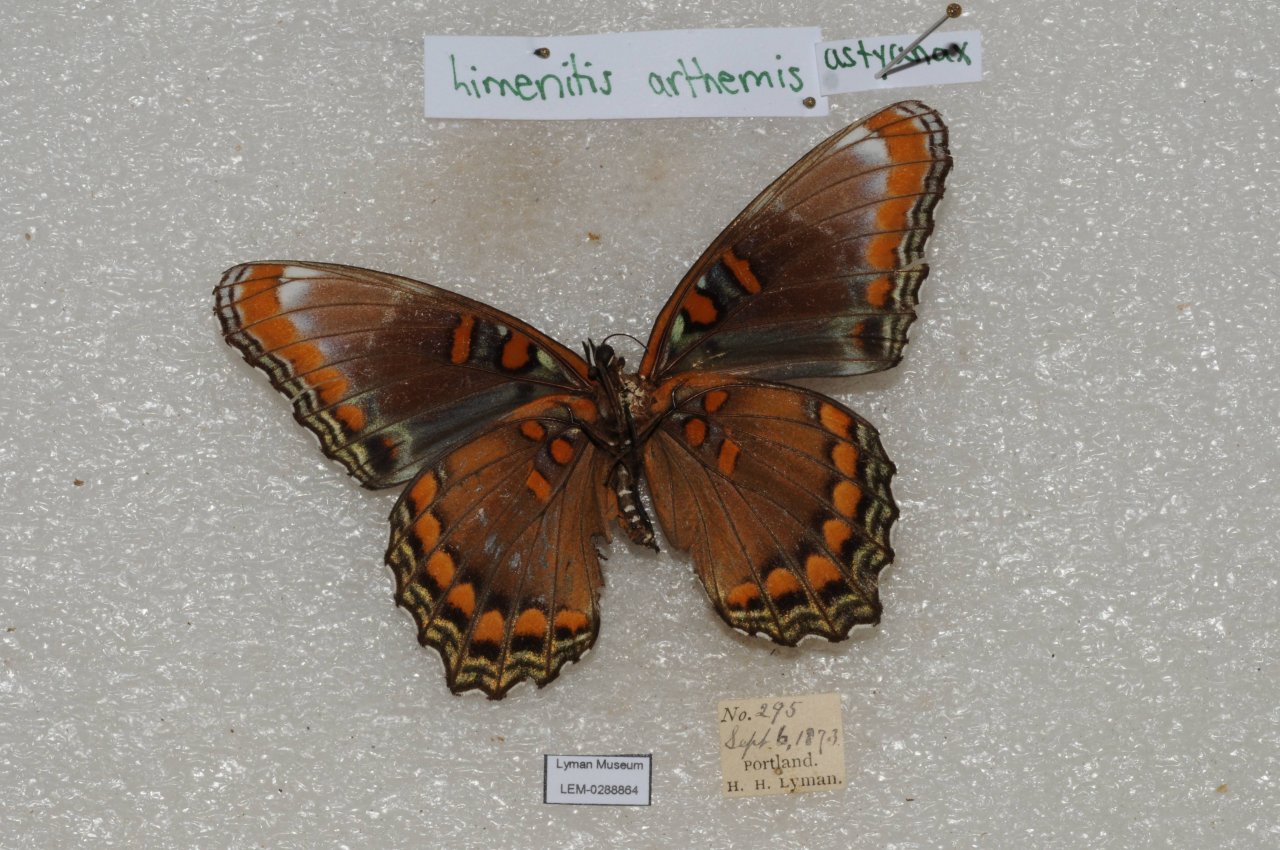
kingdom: Animalia
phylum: Arthropoda
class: Insecta
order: Lepidoptera
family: Nymphalidae
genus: Limenitis
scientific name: Limenitis astyanax
